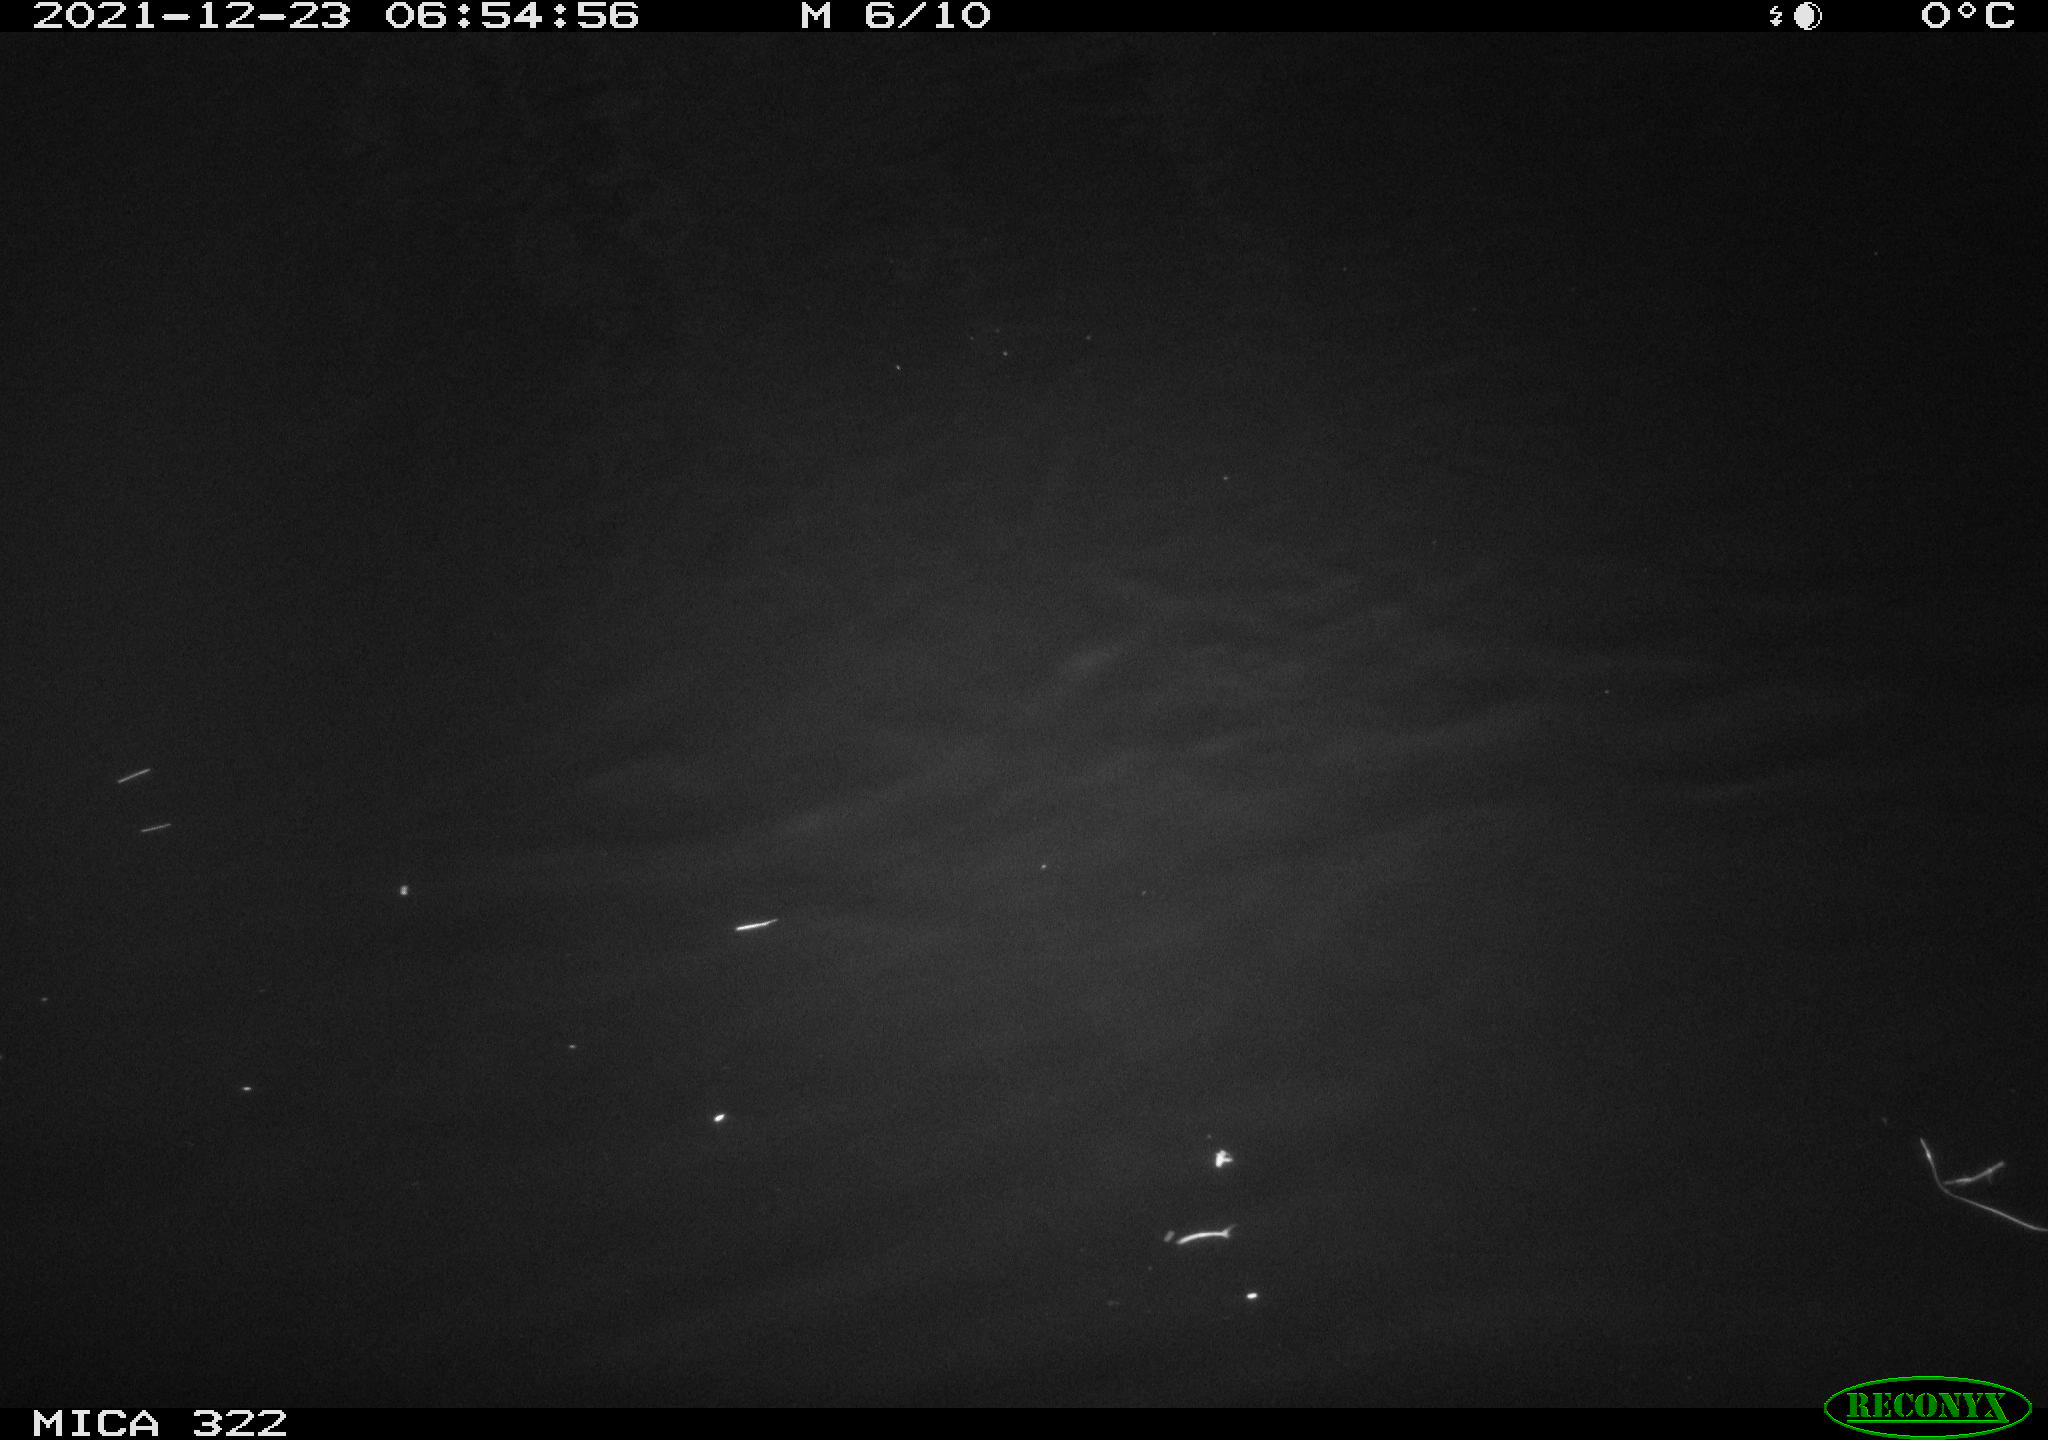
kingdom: Animalia
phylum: Chordata
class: Aves
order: Anseriformes
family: Anatidae
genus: Anas
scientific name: Anas
